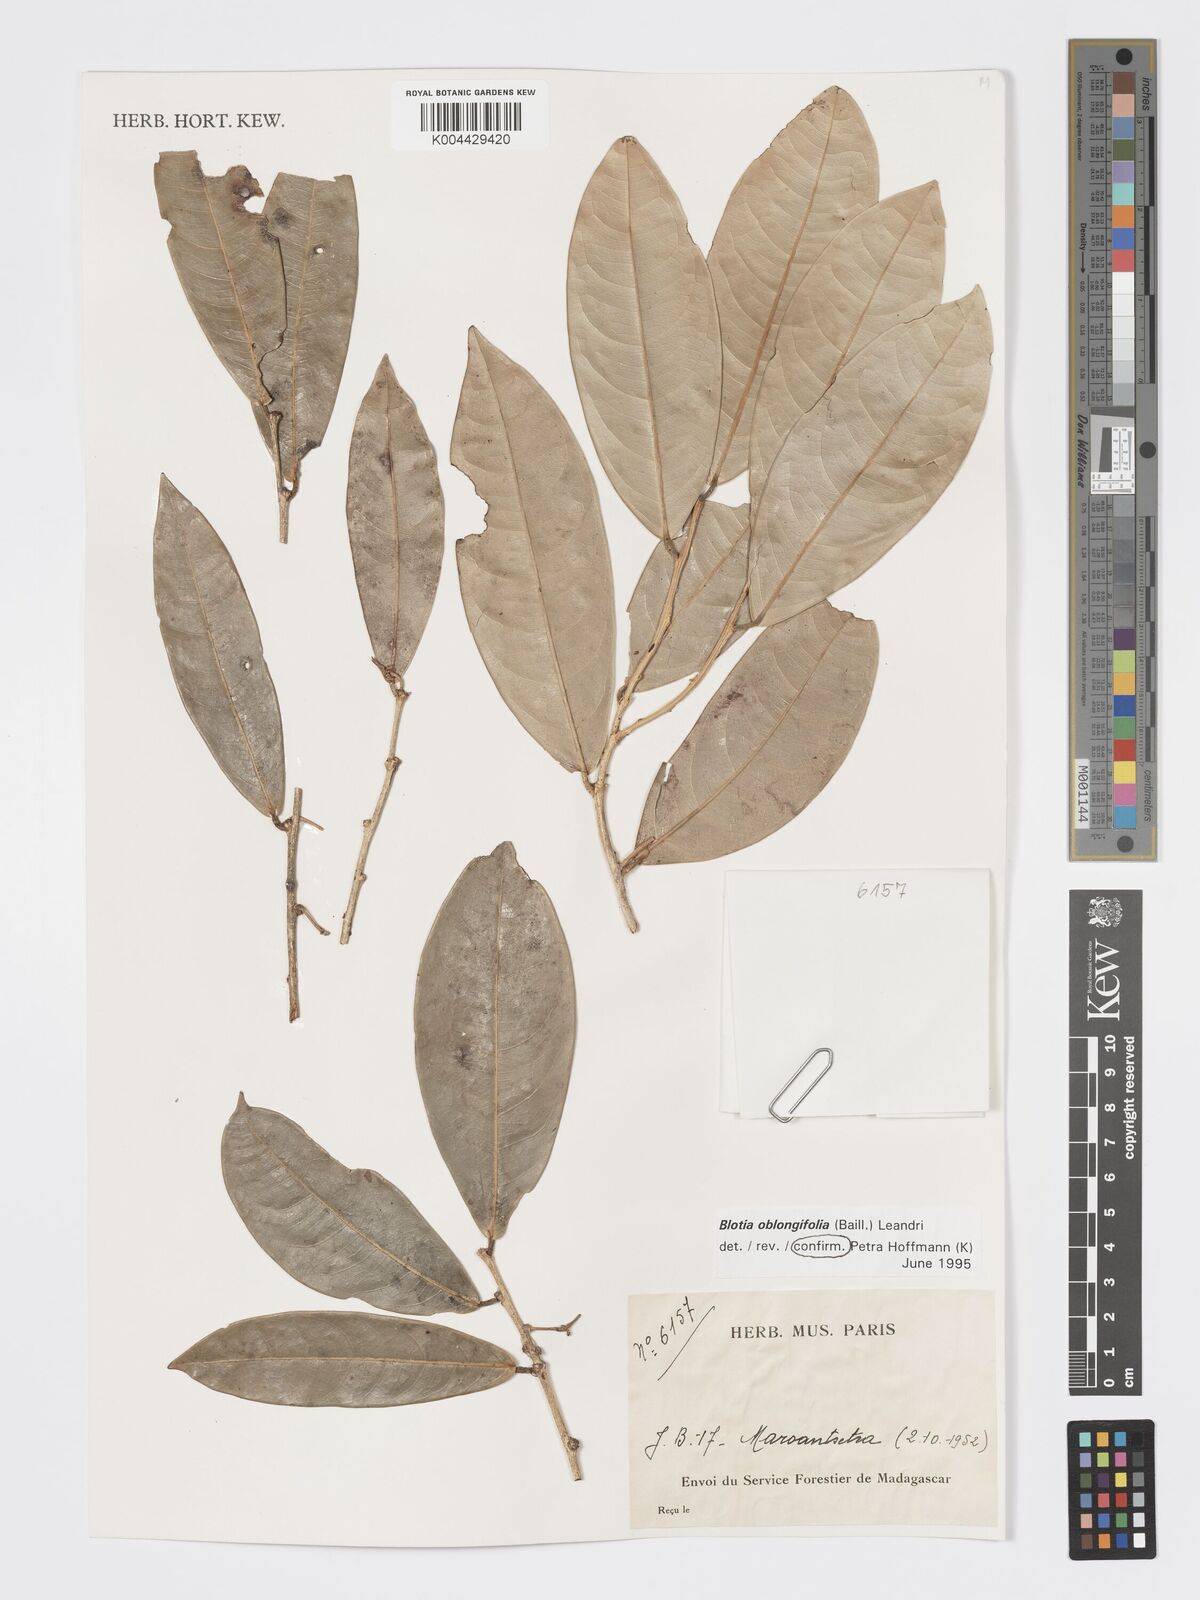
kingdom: Plantae
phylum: Tracheophyta
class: Magnoliopsida
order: Malpighiales
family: Phyllanthaceae
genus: Wielandia
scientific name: Wielandia oblongifolia
